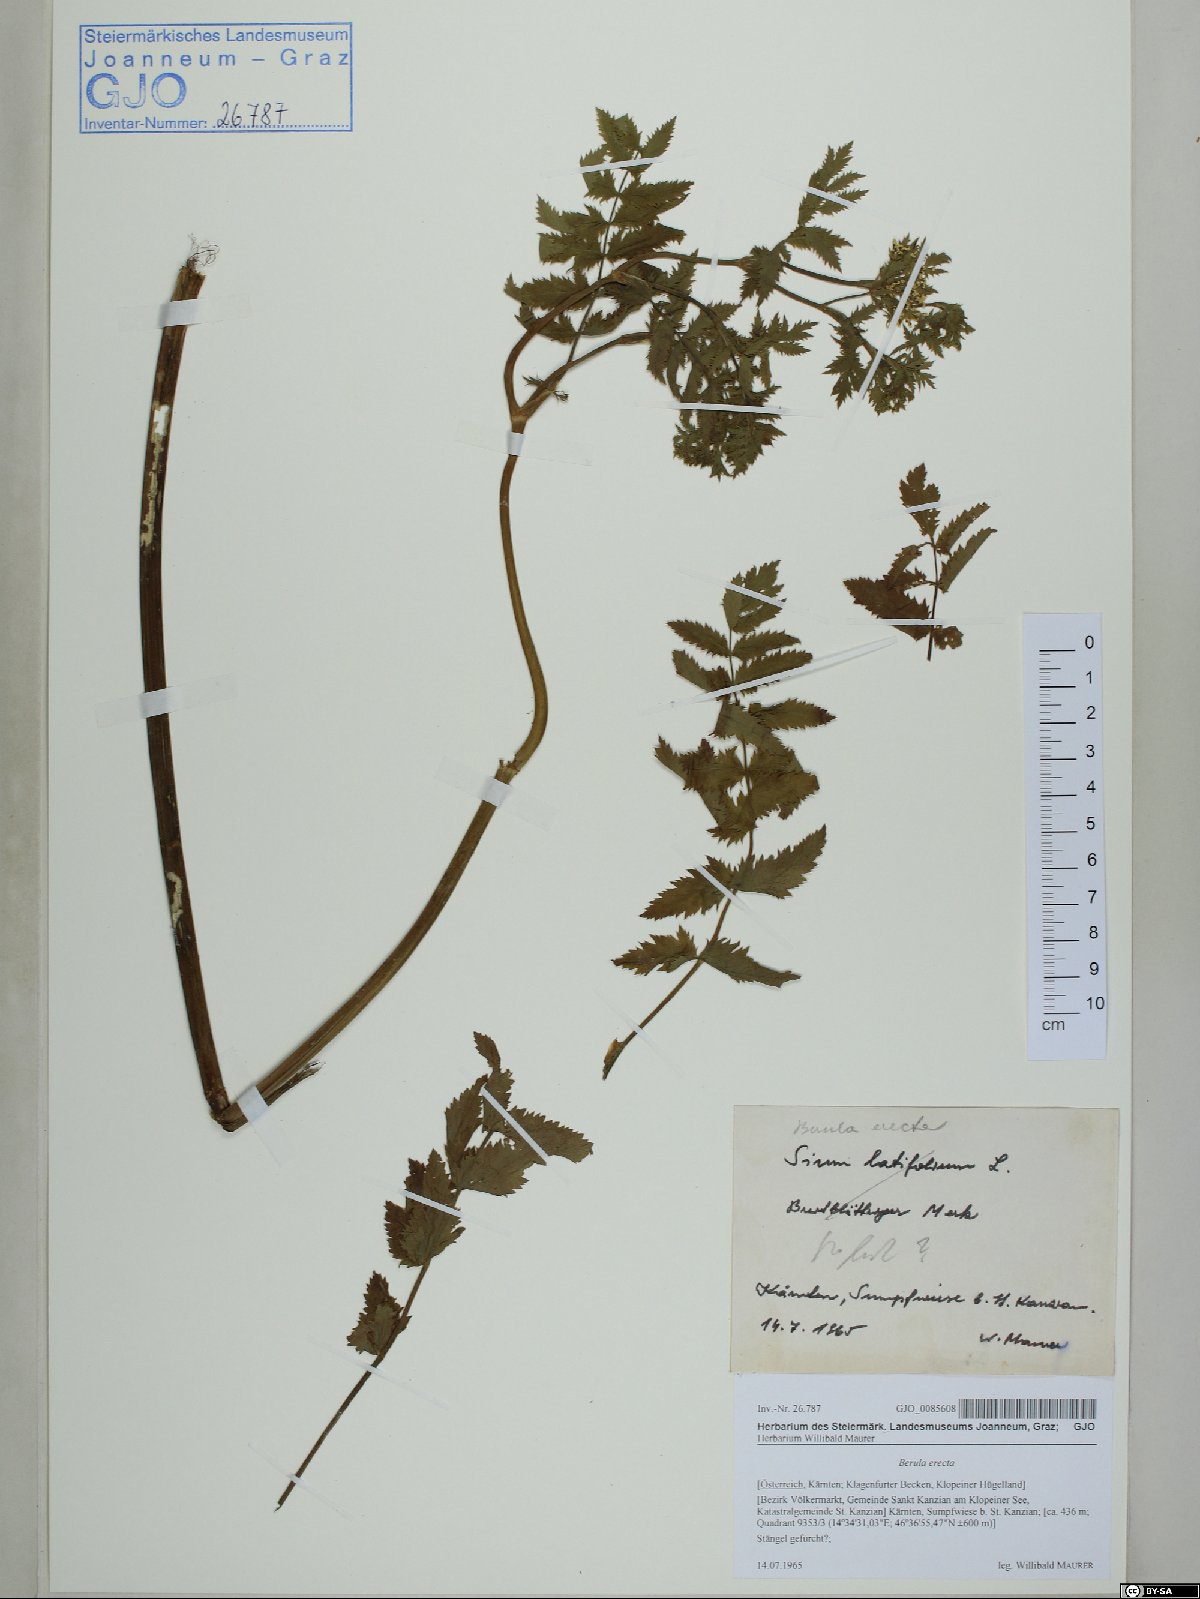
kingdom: Plantae
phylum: Tracheophyta
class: Magnoliopsida
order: Apiales
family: Apiaceae
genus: Berula
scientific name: Berula erecta
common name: Lesser water-parsnip
